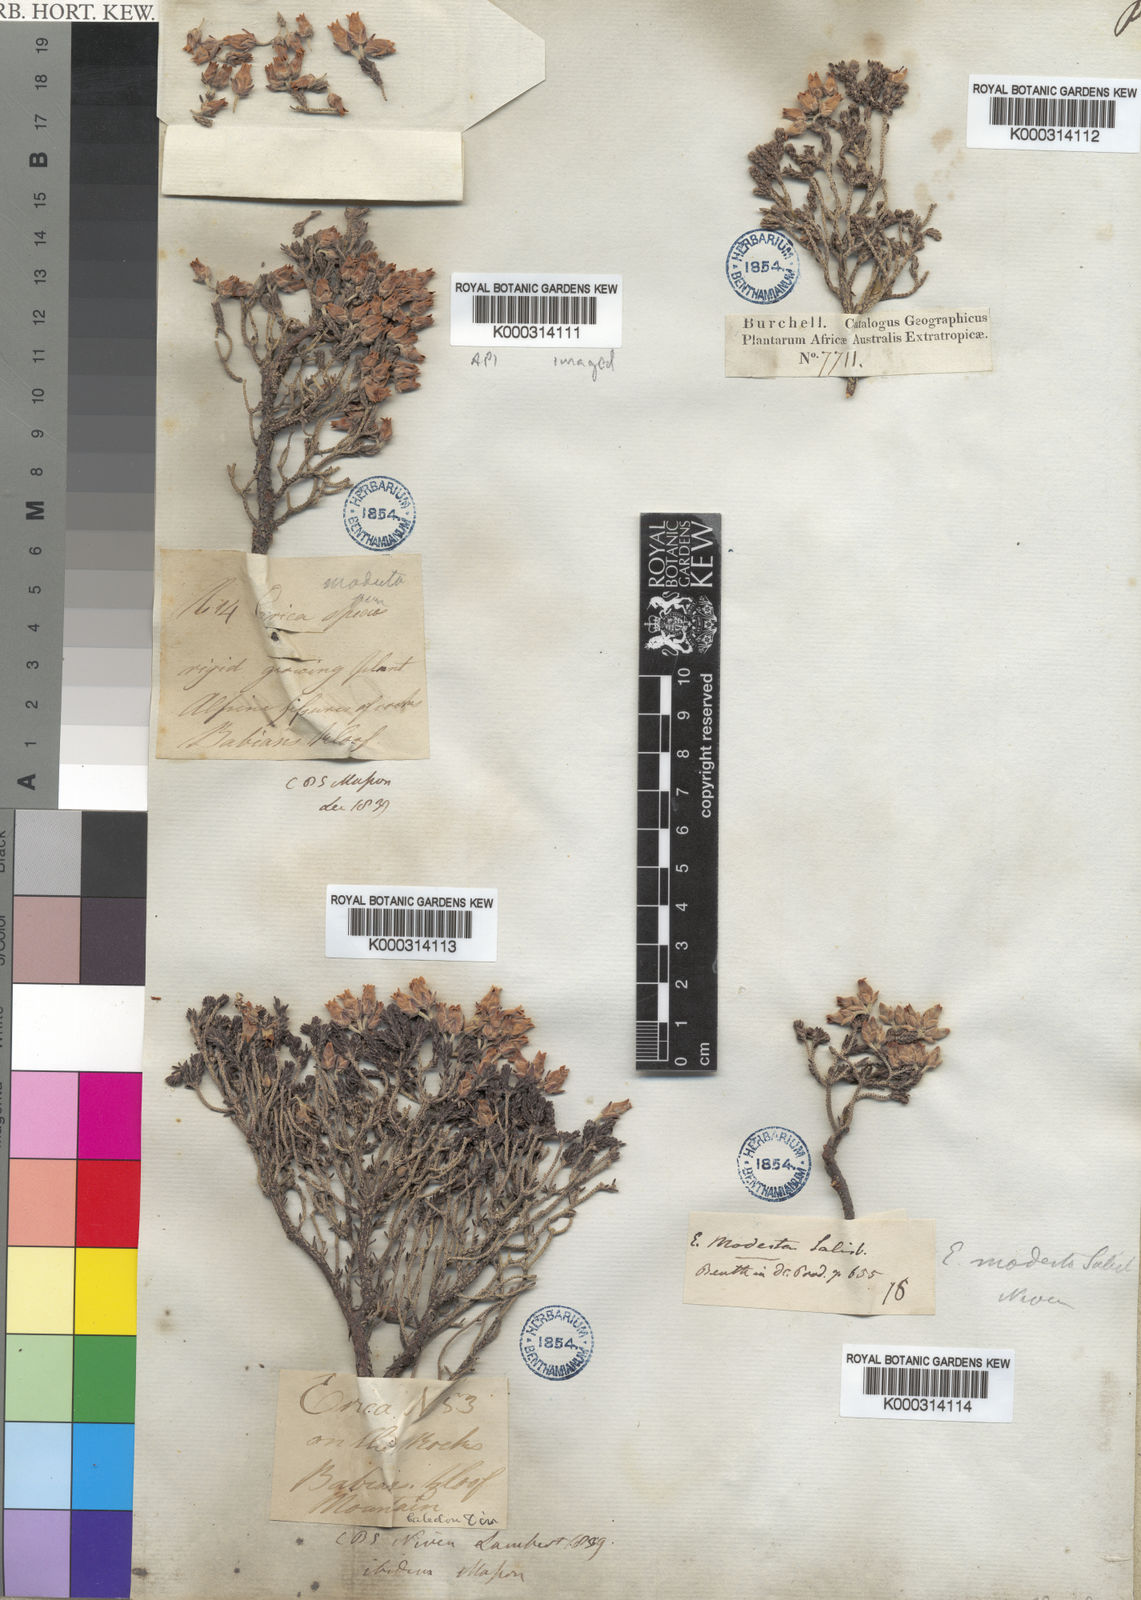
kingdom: Plantae
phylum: Tracheophyta
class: Magnoliopsida
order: Ericales
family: Ericaceae
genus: Erica
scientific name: Erica modesta
